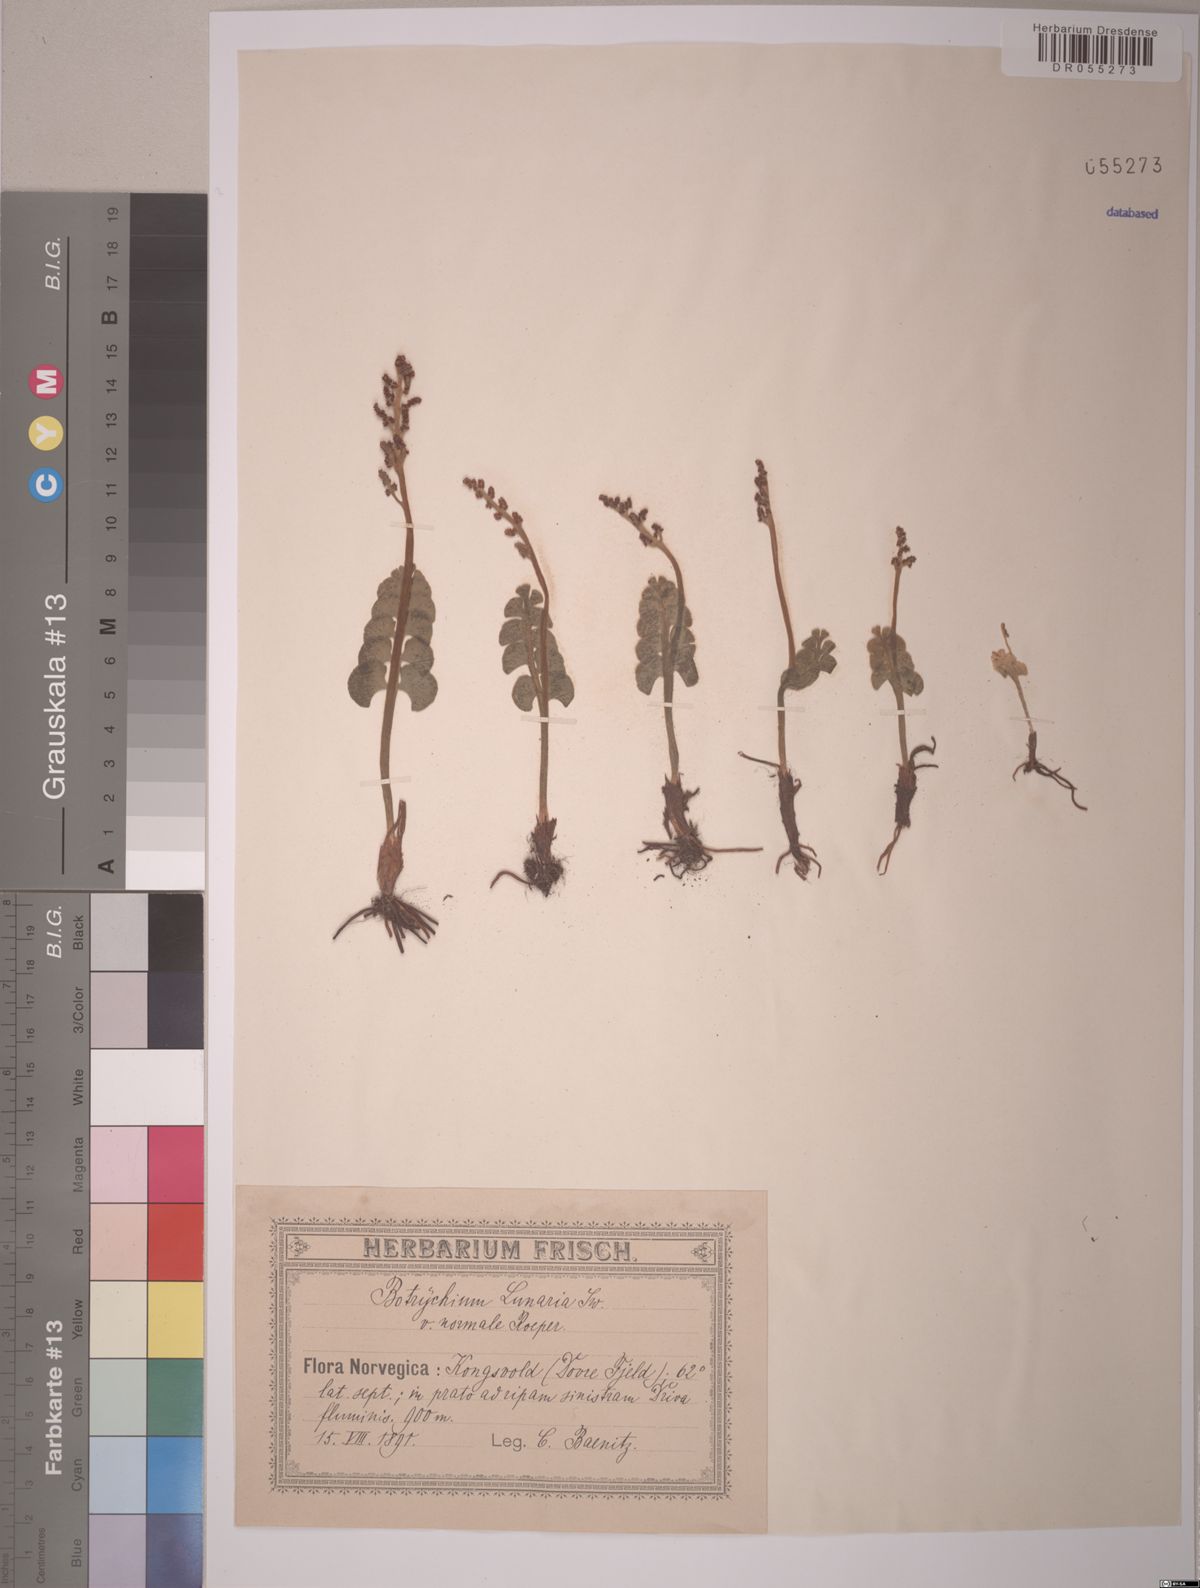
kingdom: Plantae
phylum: Tracheophyta
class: Polypodiopsida
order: Ophioglossales
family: Ophioglossaceae
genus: Botrychium
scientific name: Botrychium lunaria
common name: Moonwort
